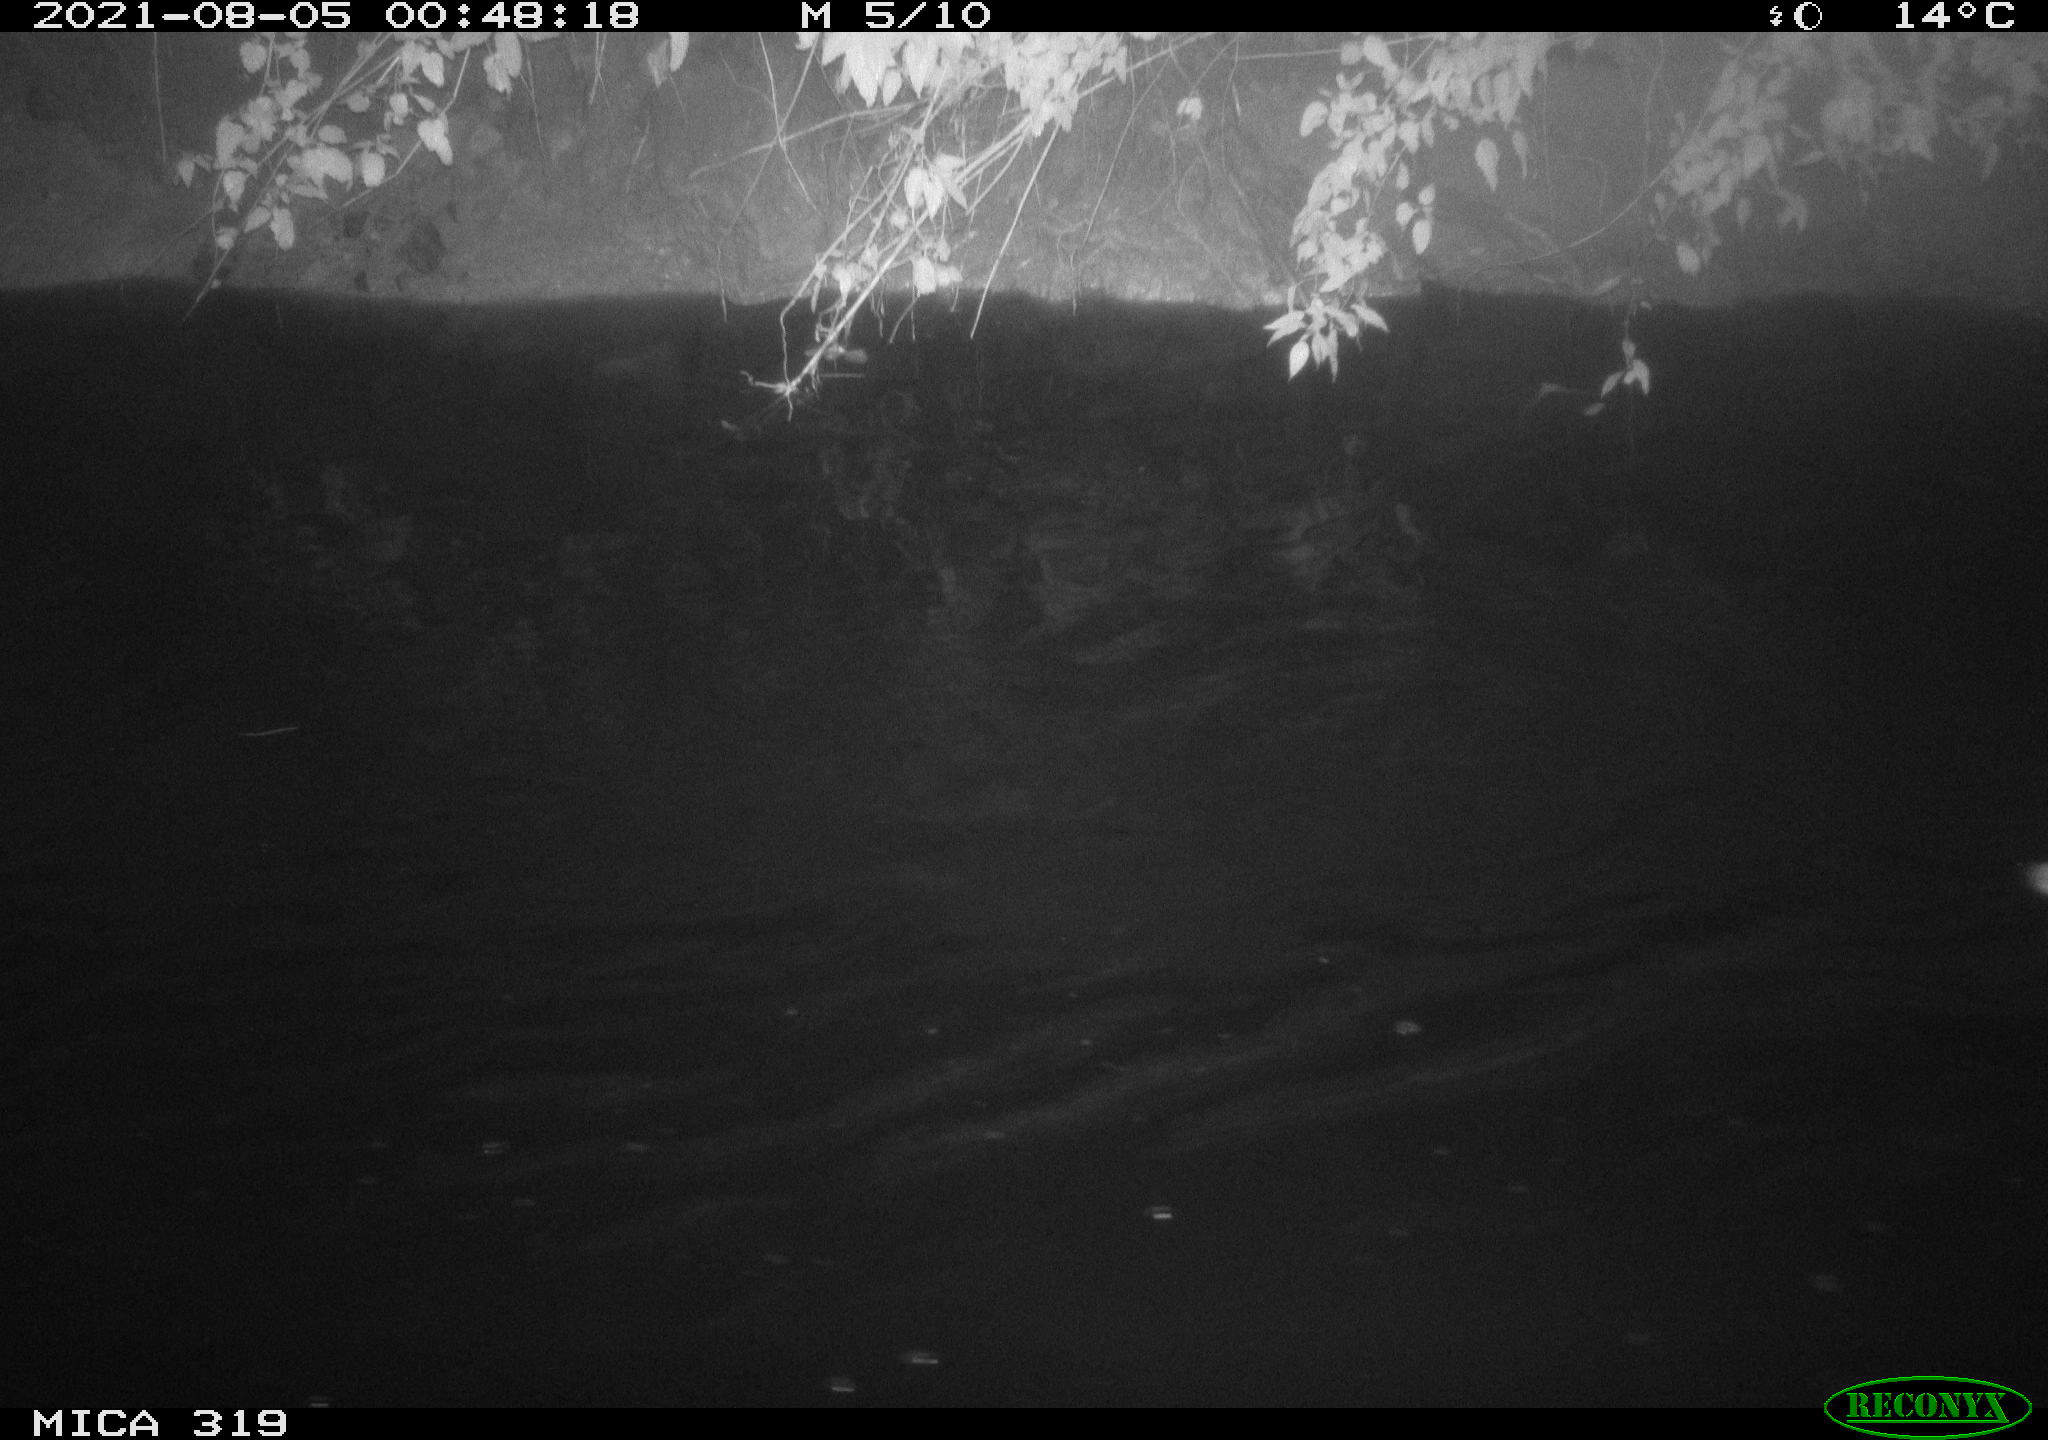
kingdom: Animalia
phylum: Chordata
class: Aves
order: Anseriformes
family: Anatidae
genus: Anas
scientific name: Anas platyrhynchos
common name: Mallard
